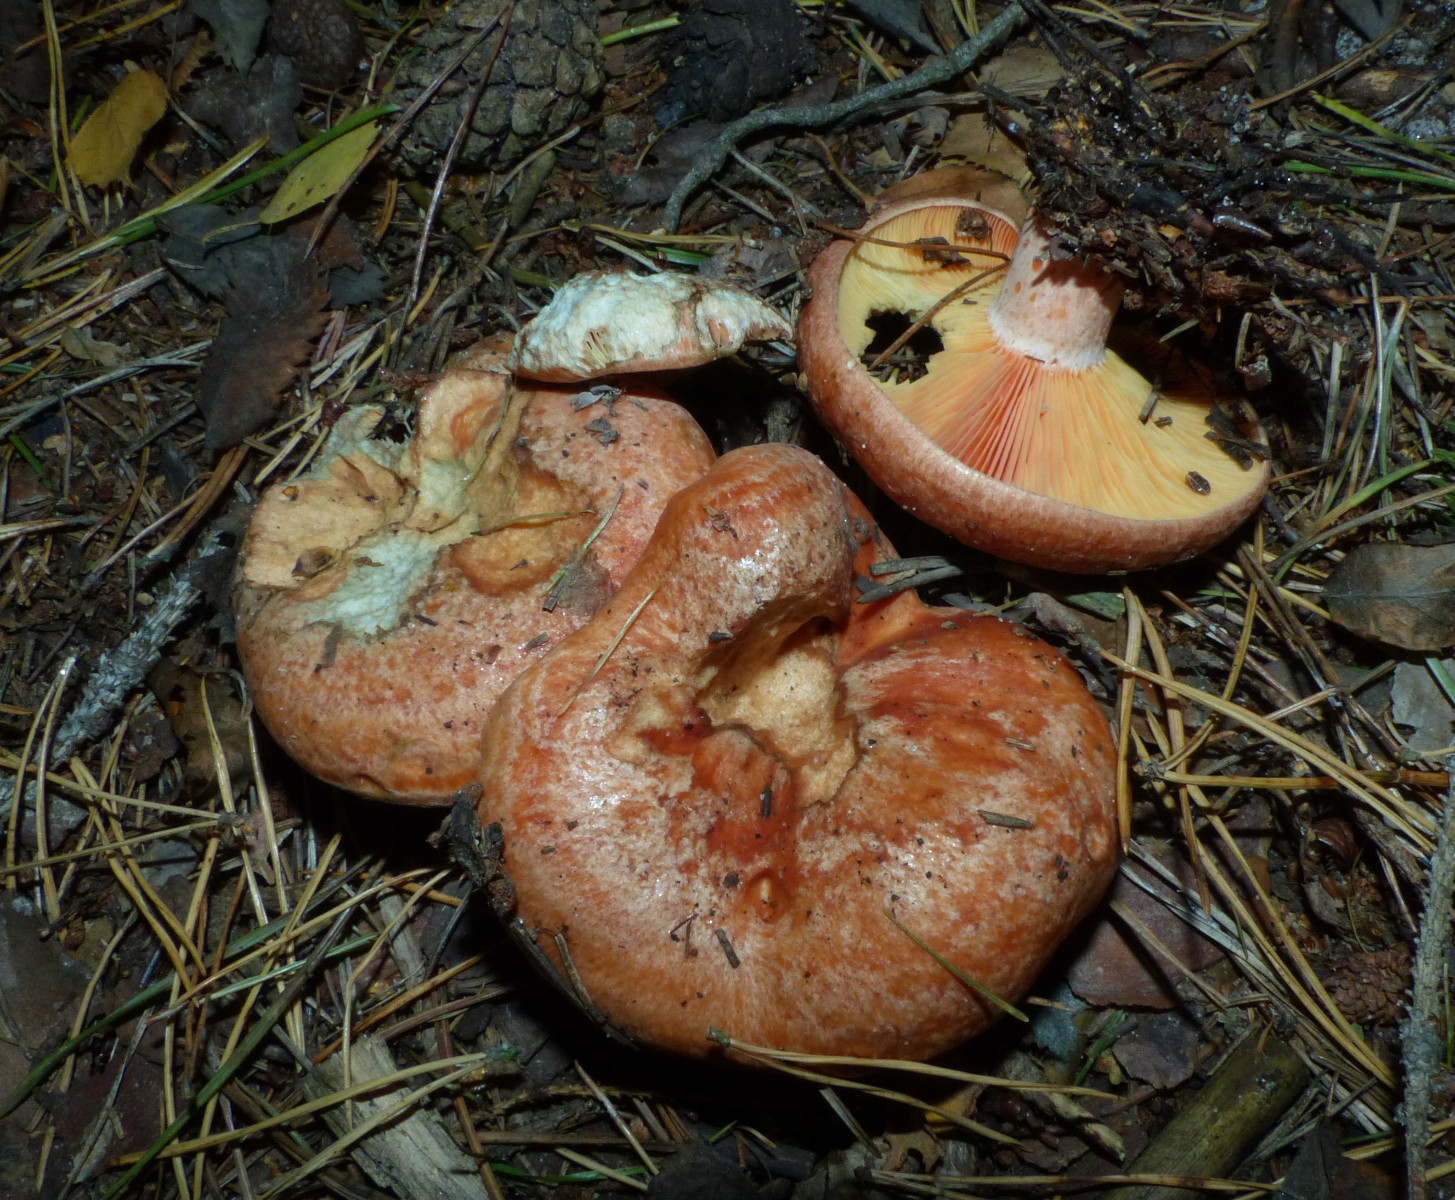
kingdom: Fungi
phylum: Basidiomycota
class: Agaricomycetes
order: Russulales
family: Russulaceae
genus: Lactarius
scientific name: Lactarius deliciosus
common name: velsmagende mælkehat
